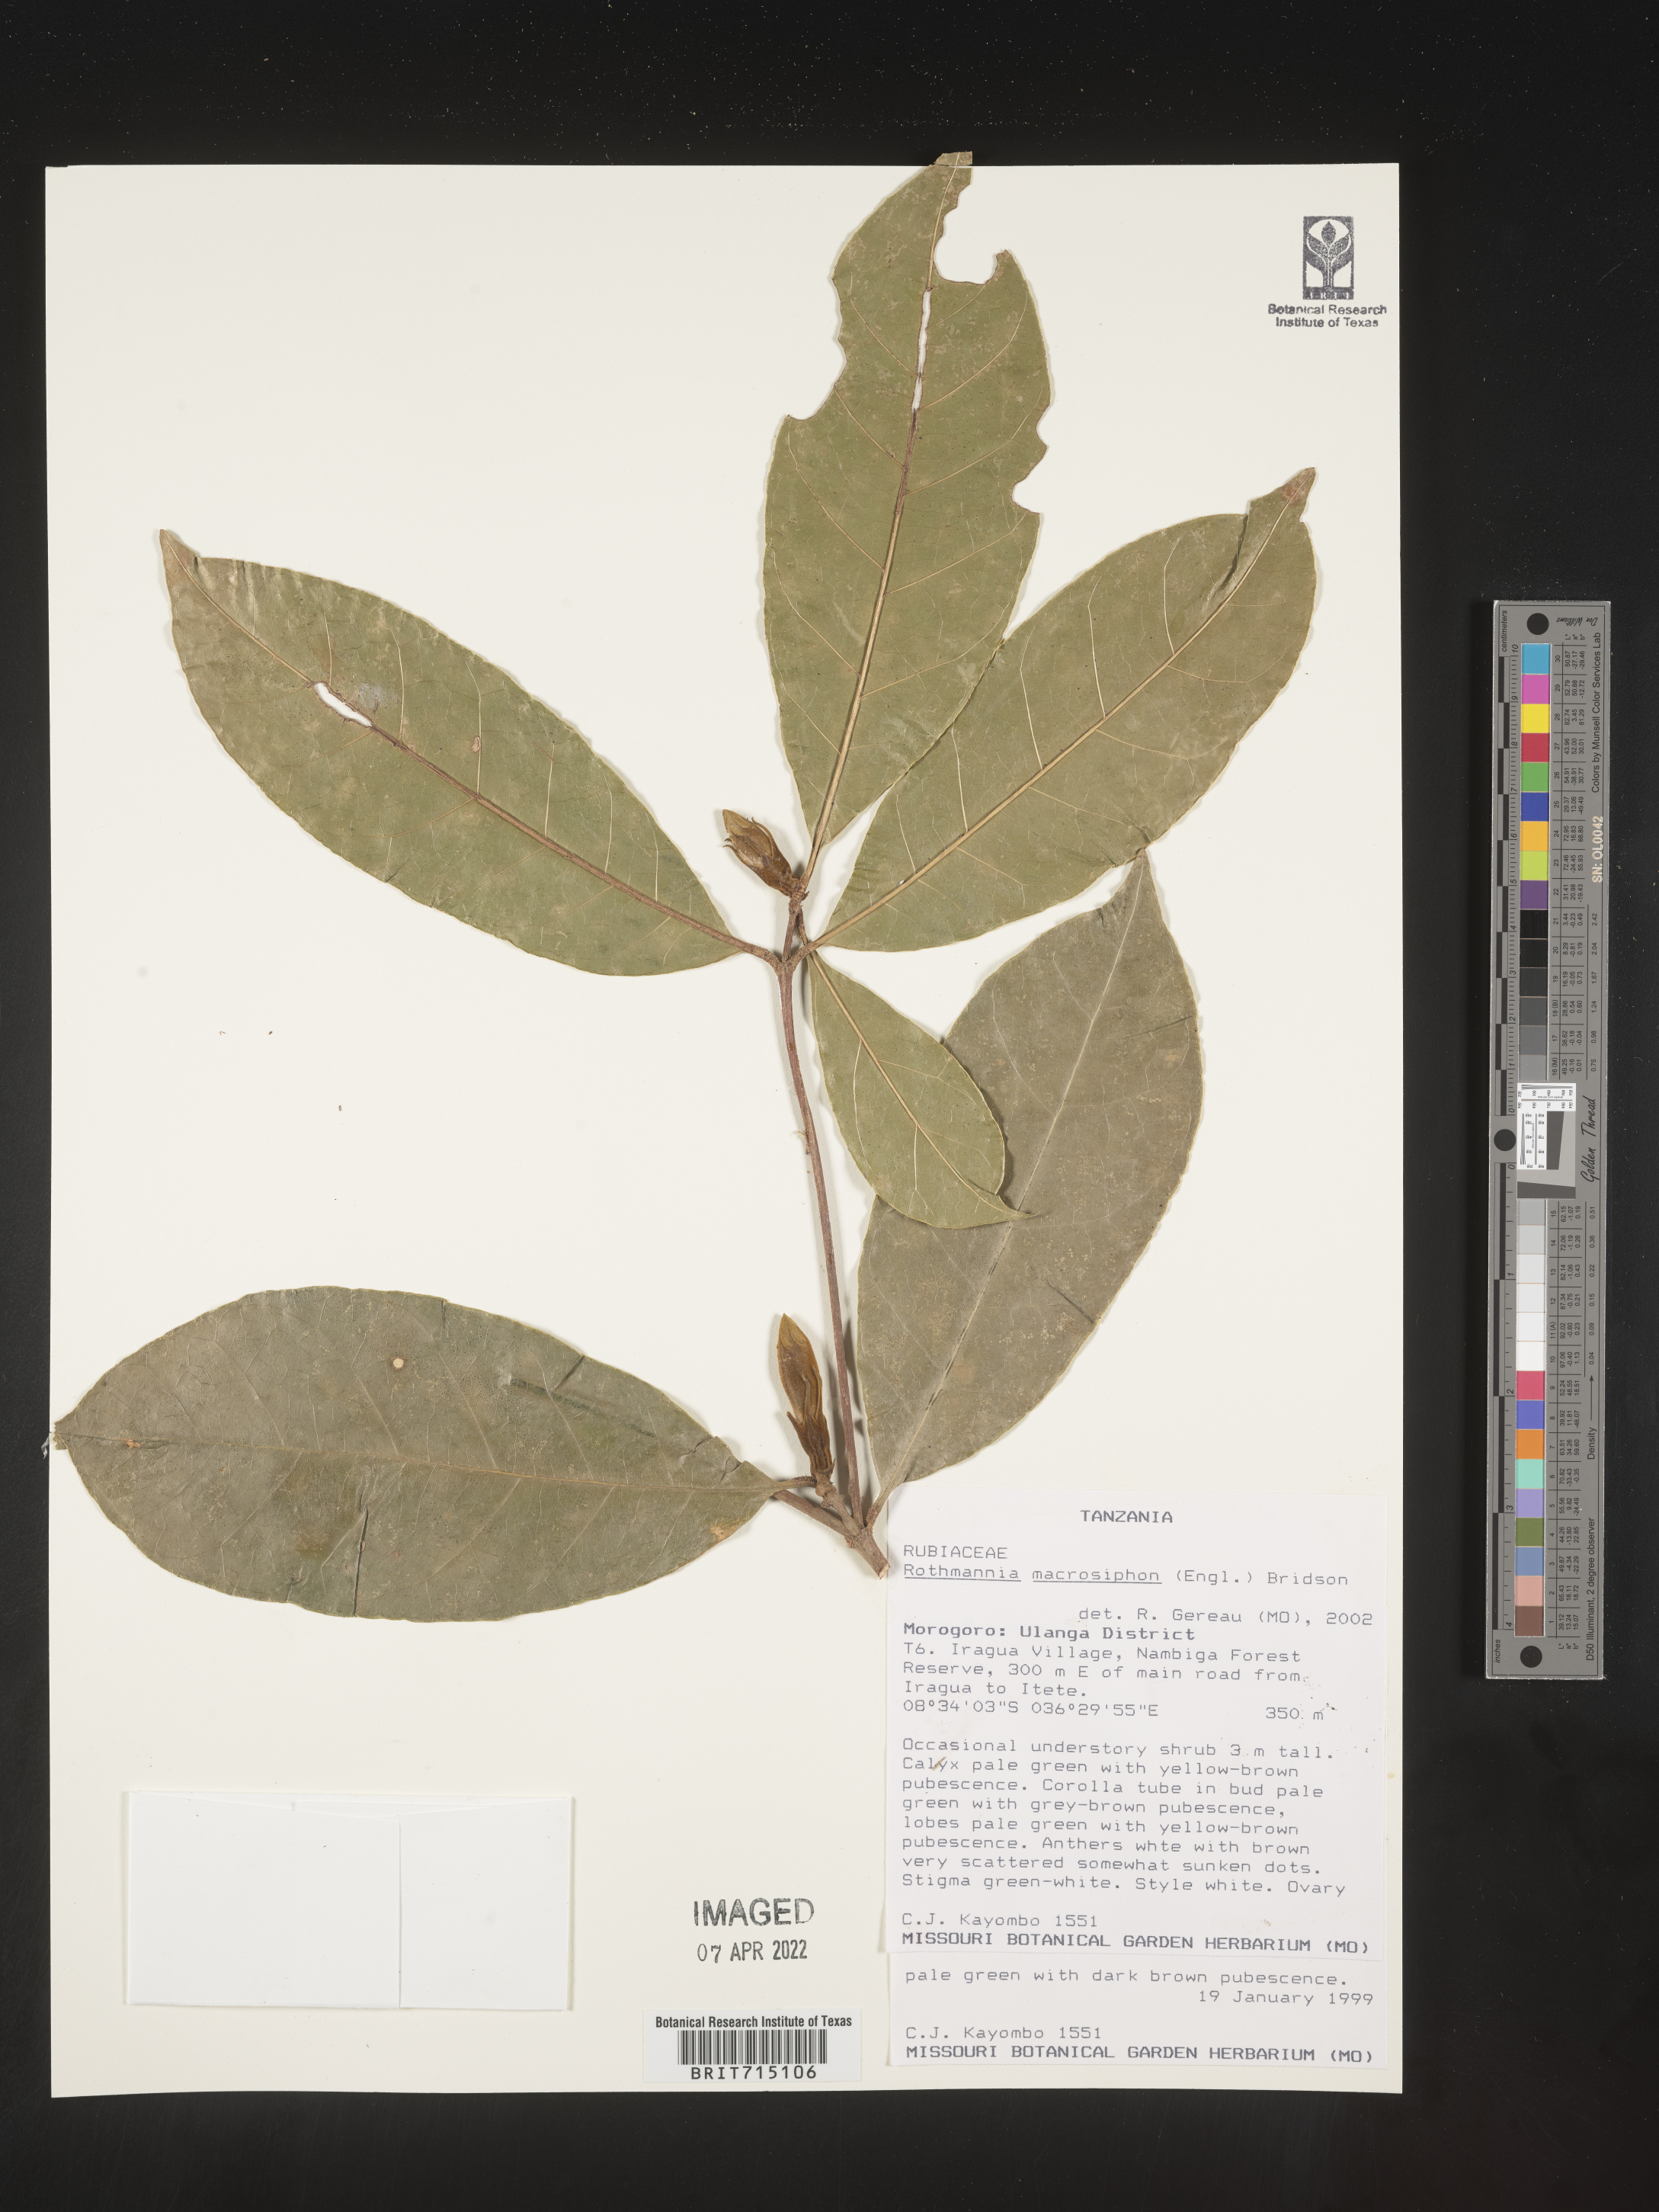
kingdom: Plantae
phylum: Tracheophyta
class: Magnoliopsida
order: Gentianales
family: Rubiaceae
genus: Rothmannia
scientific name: Rothmannia
